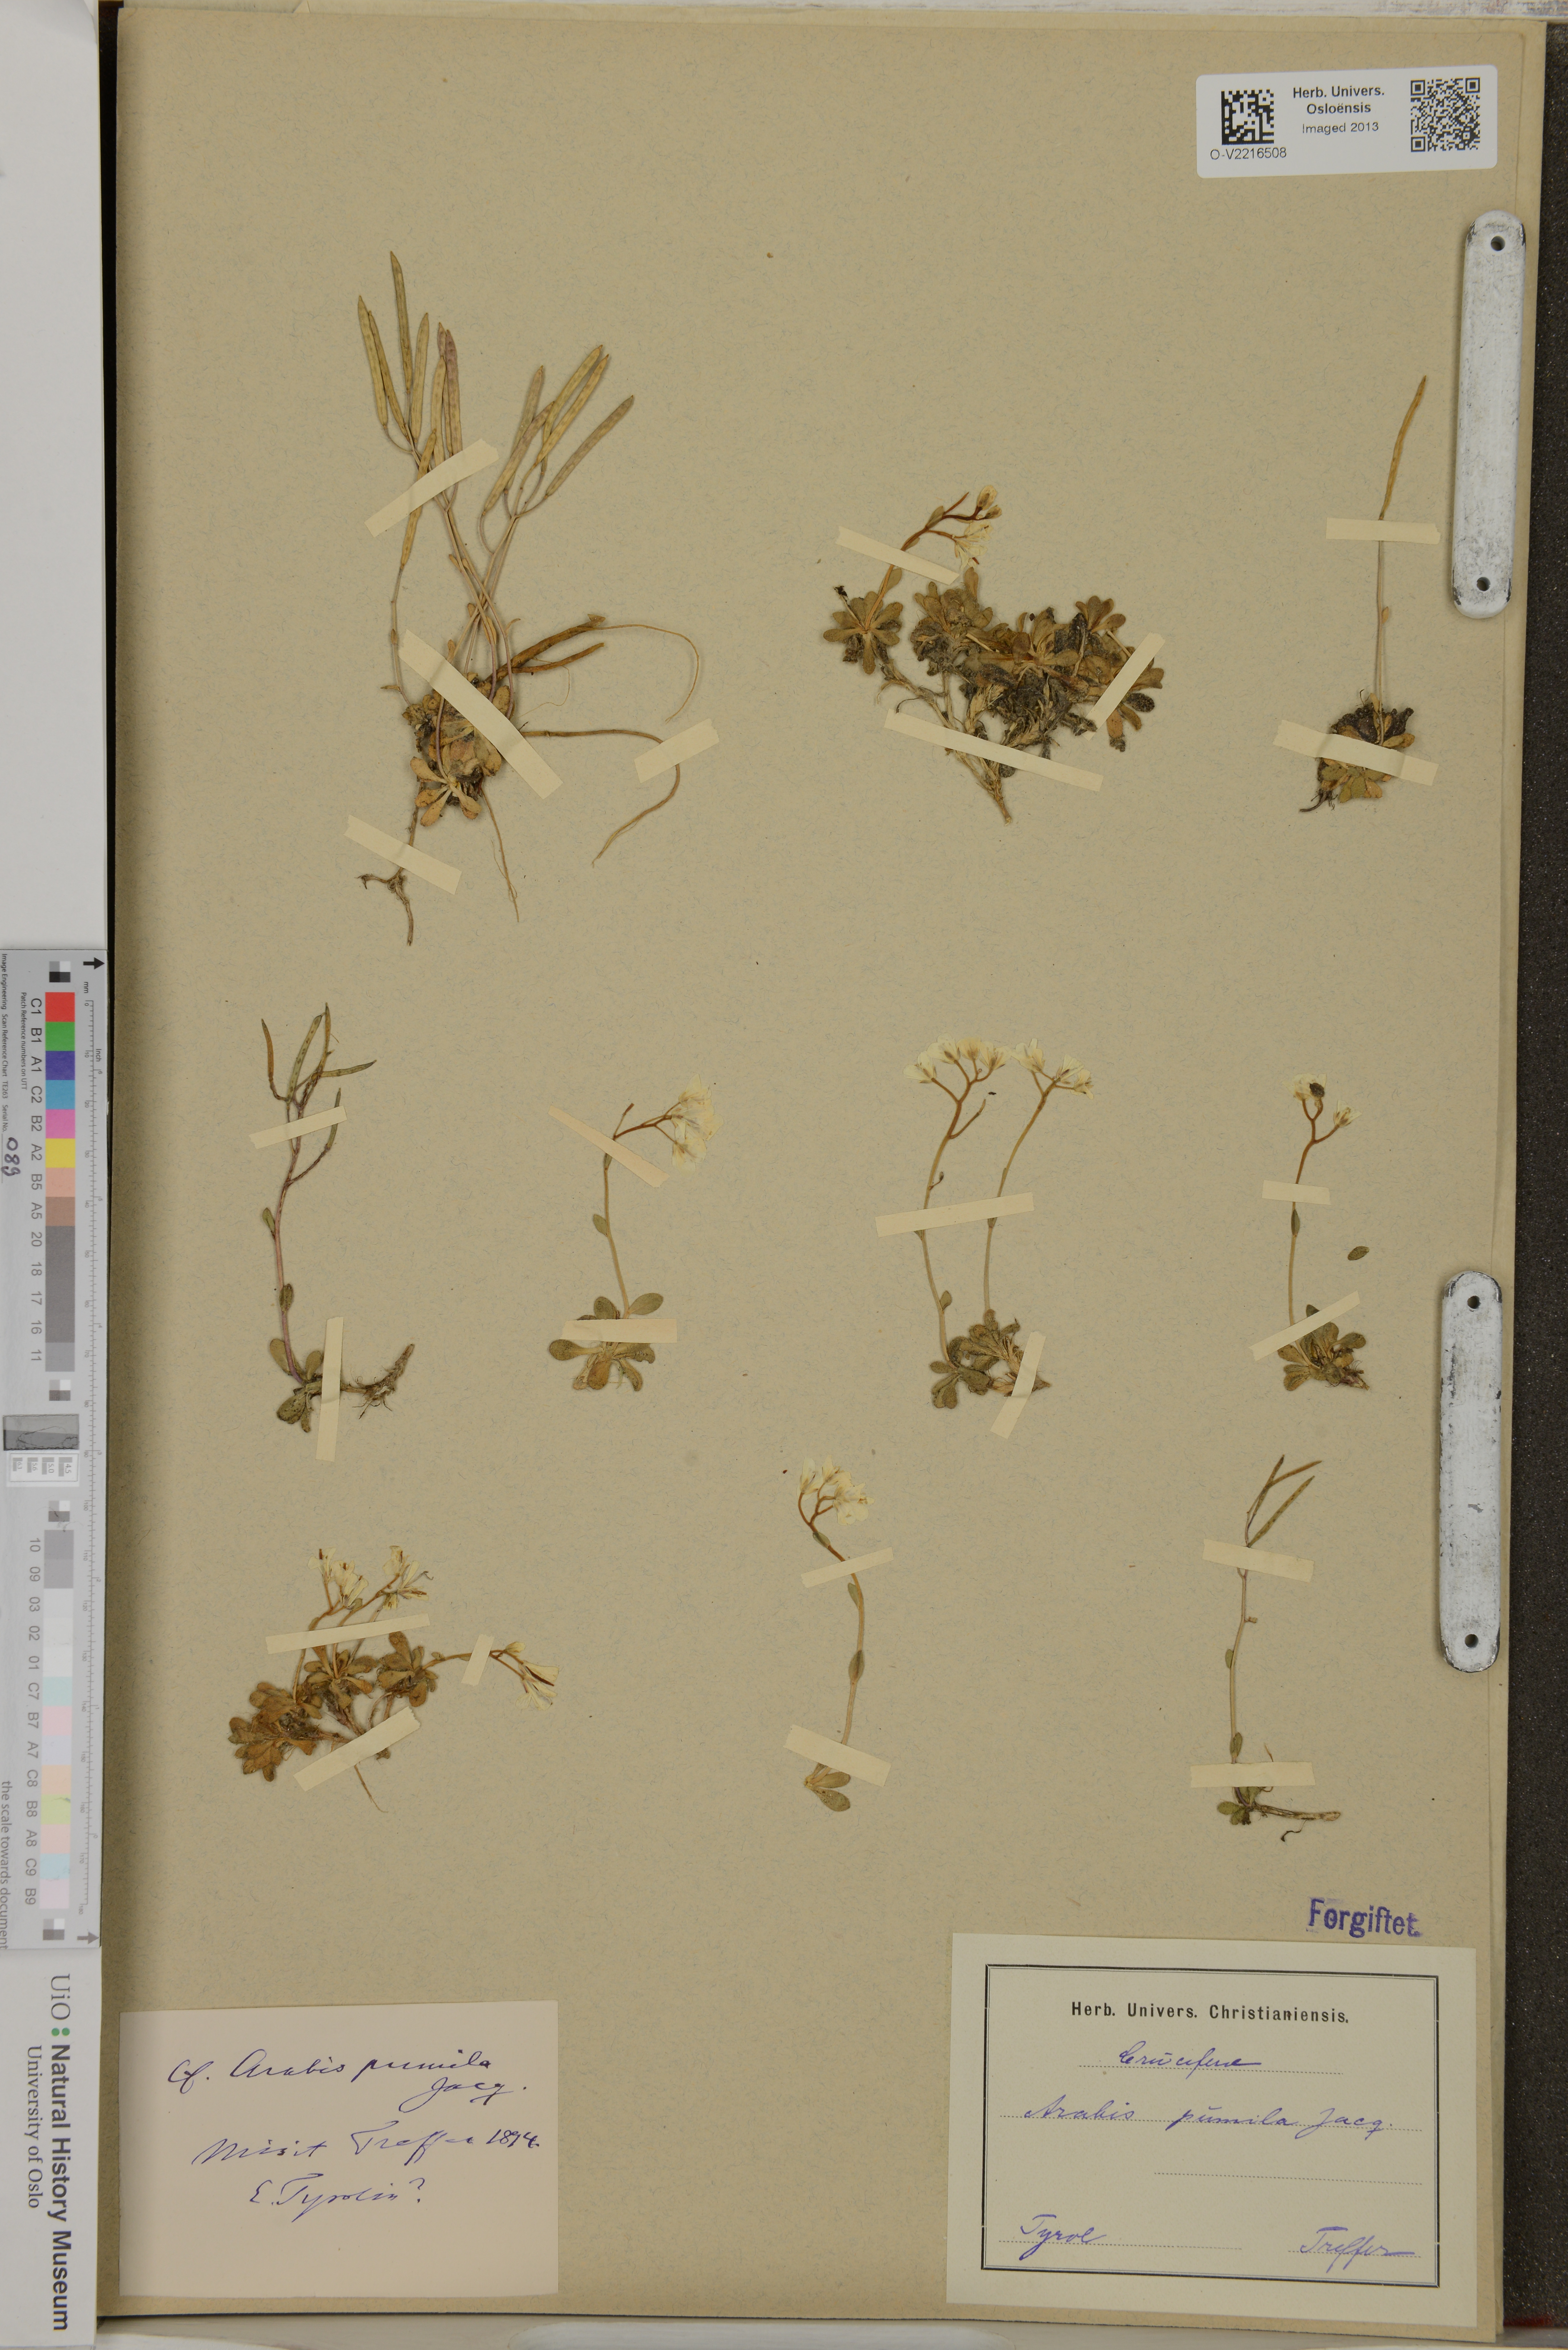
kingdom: Plantae
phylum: Tracheophyta
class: Magnoliopsida
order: Brassicales
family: Brassicaceae
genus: Arabis
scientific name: Arabis pumila
